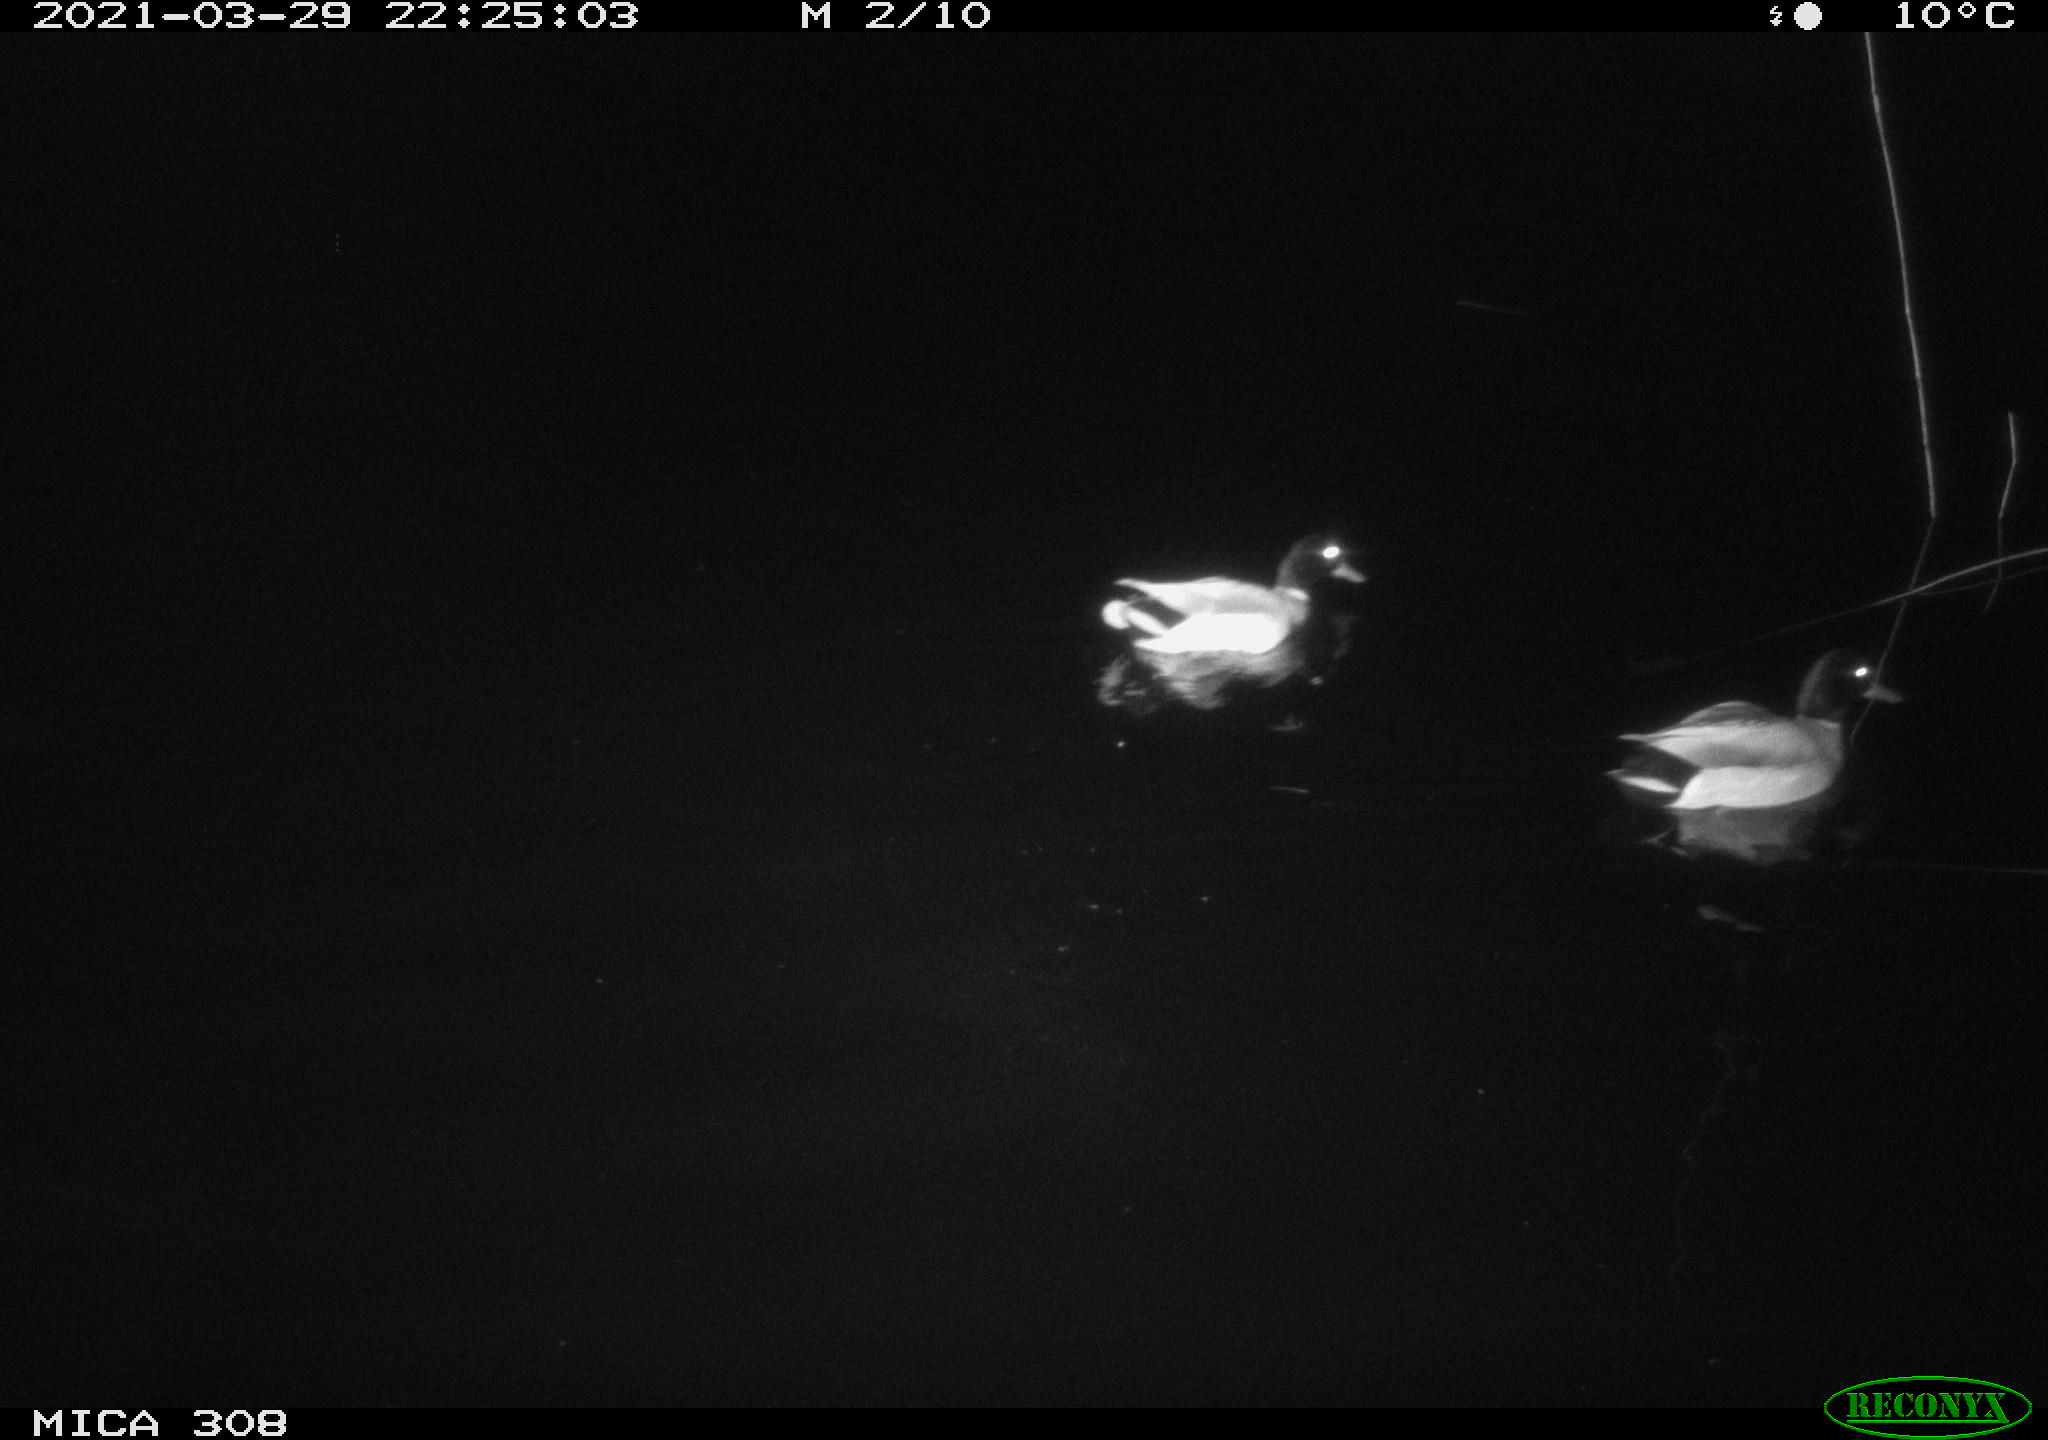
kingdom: Animalia
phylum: Chordata
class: Aves
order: Anseriformes
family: Anatidae
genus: Anas
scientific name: Anas platyrhynchos
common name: Mallard
